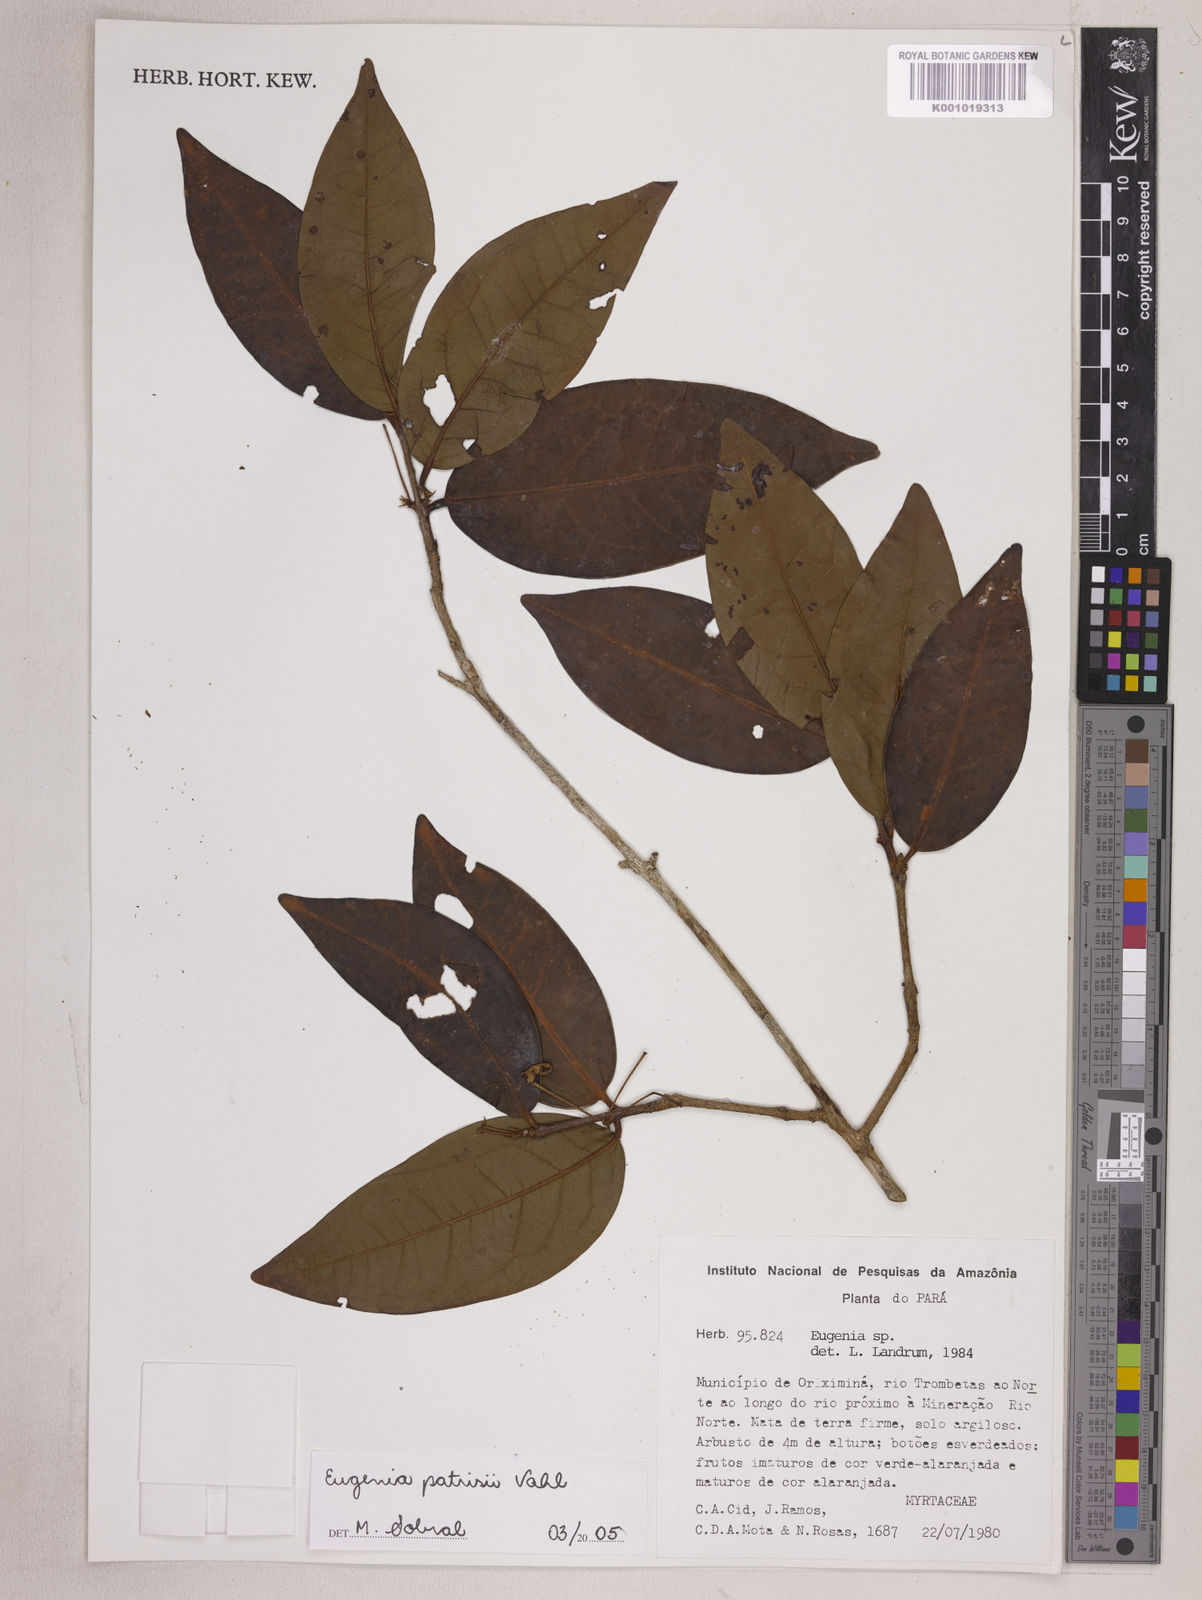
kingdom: Plantae
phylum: Tracheophyta
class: Magnoliopsida
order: Myrtales
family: Myrtaceae
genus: Eugenia
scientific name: Eugenia patrisii
